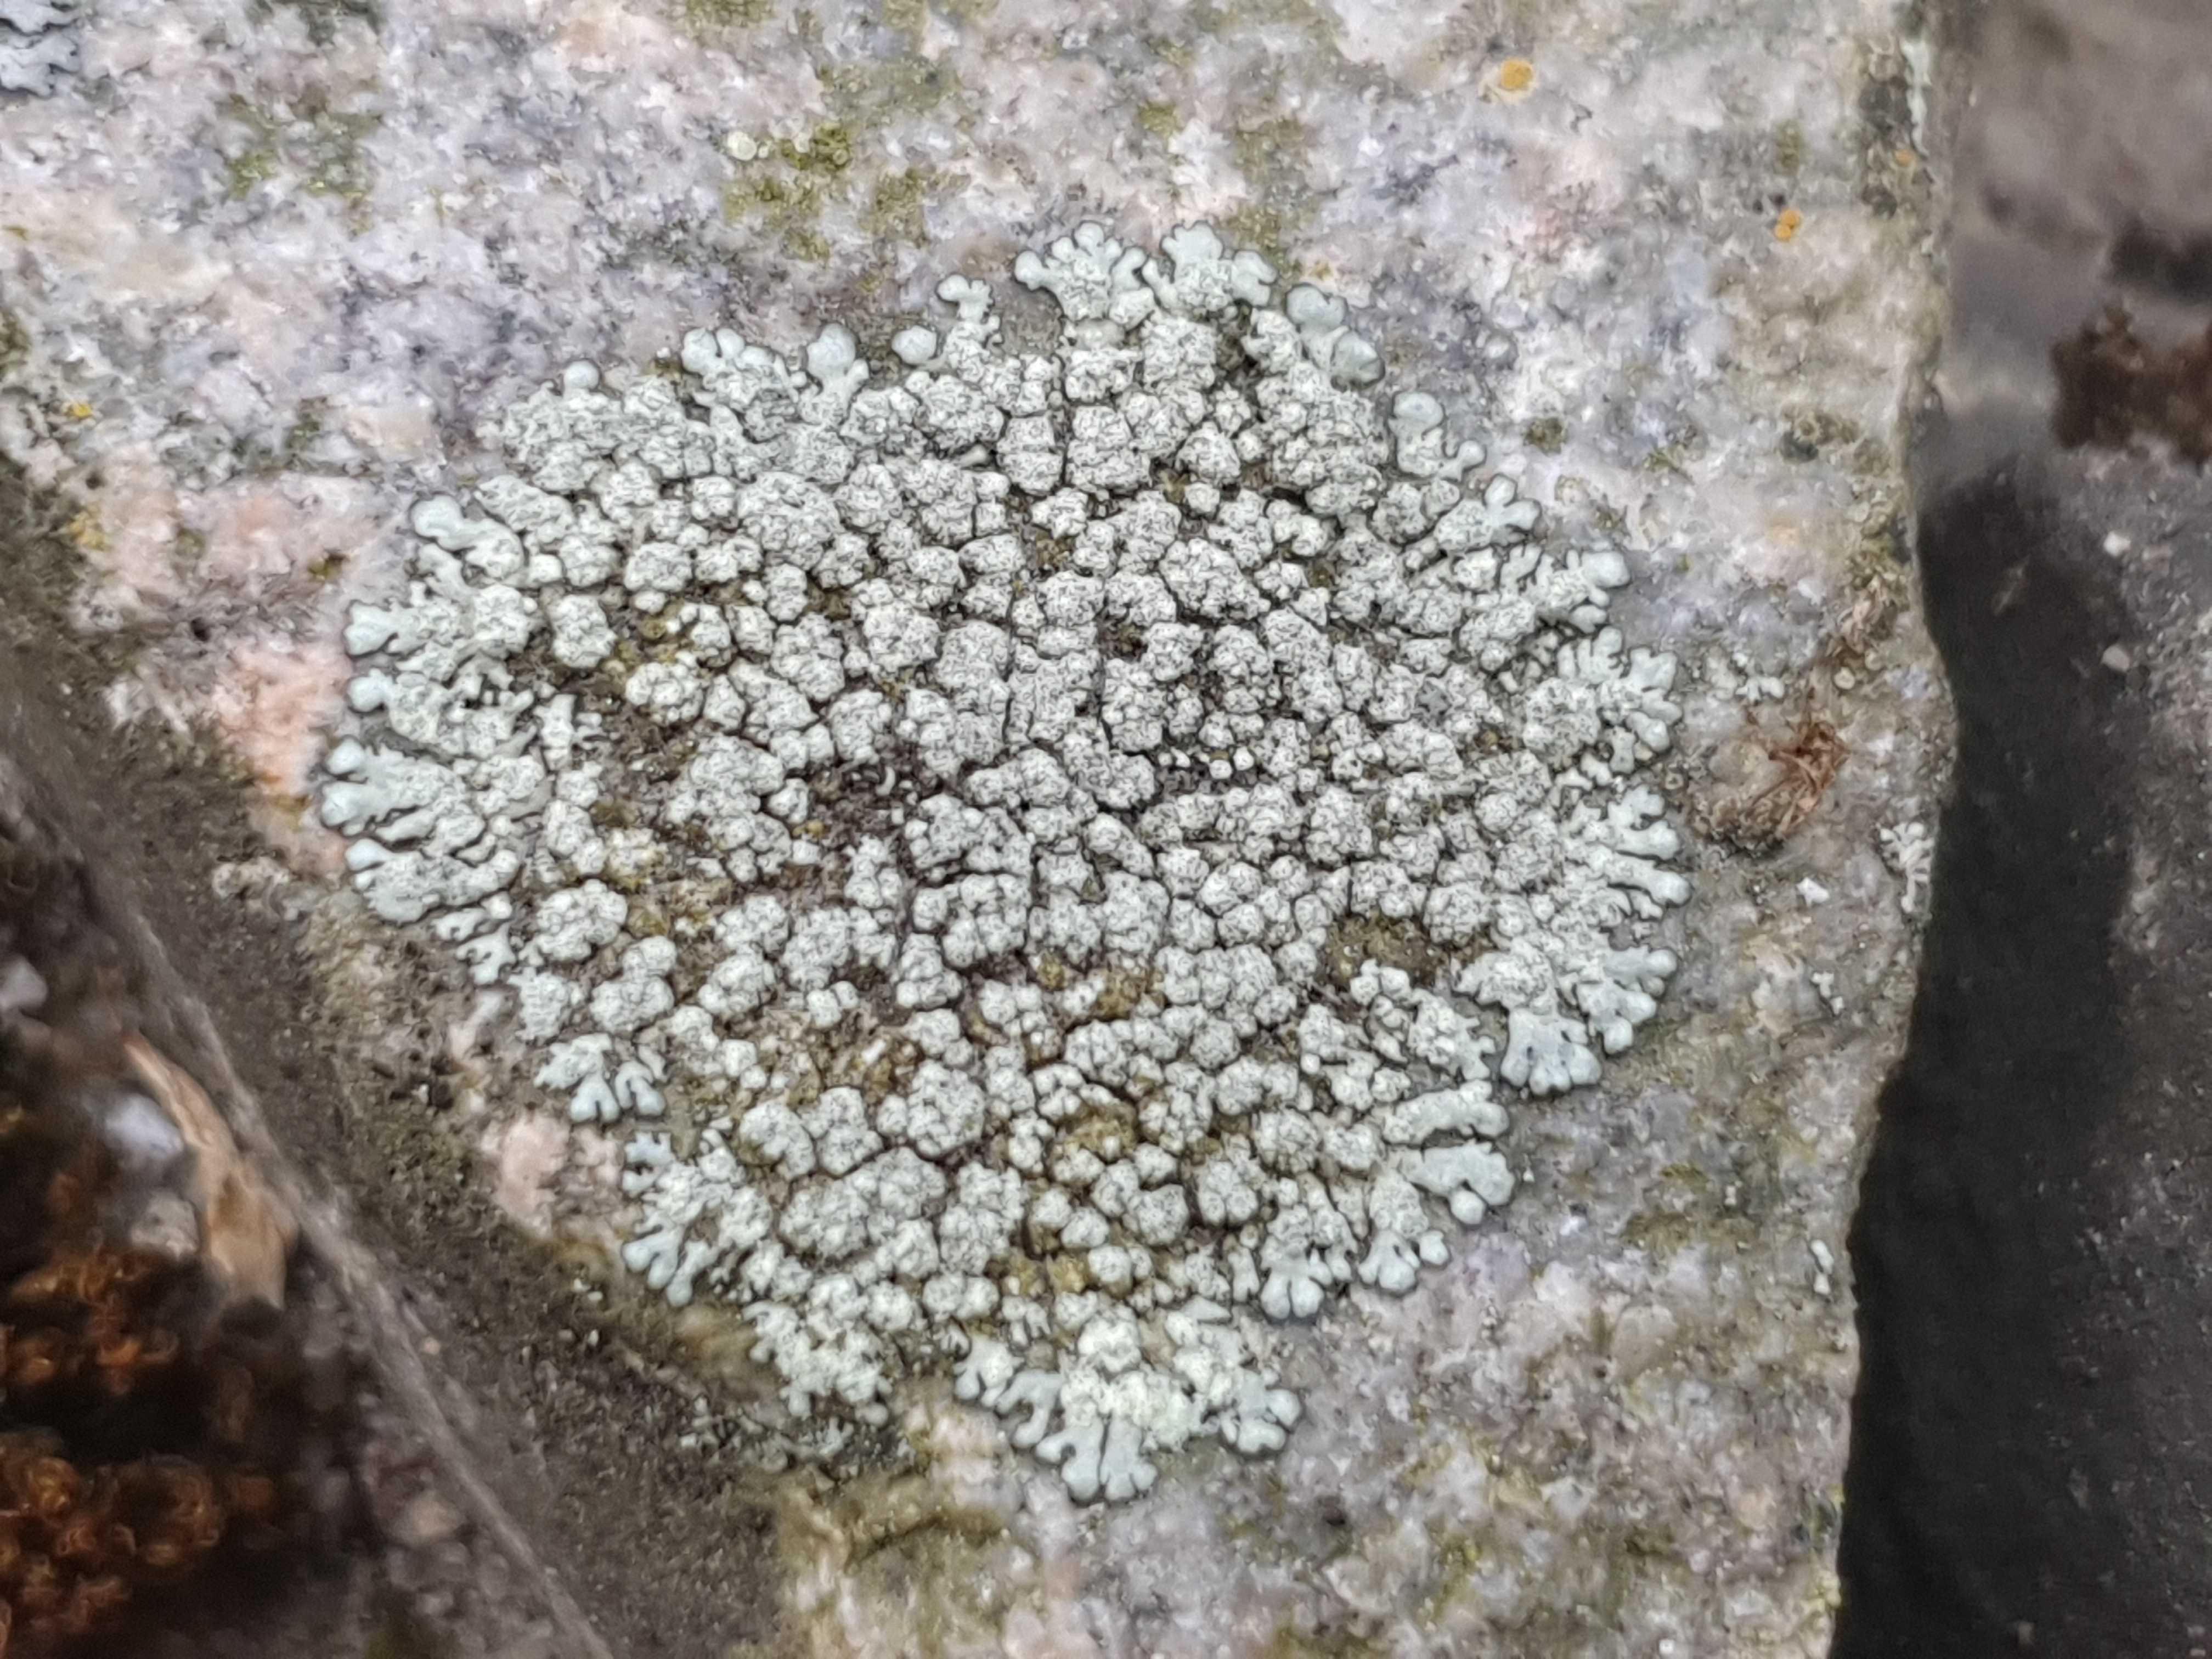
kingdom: Fungi
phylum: Ascomycota
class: Lecanoromycetes
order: Lecanorales
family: Parmeliaceae
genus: Xanthoparmelia
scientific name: Xanthoparmelia mougeotii
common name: liden skållav
